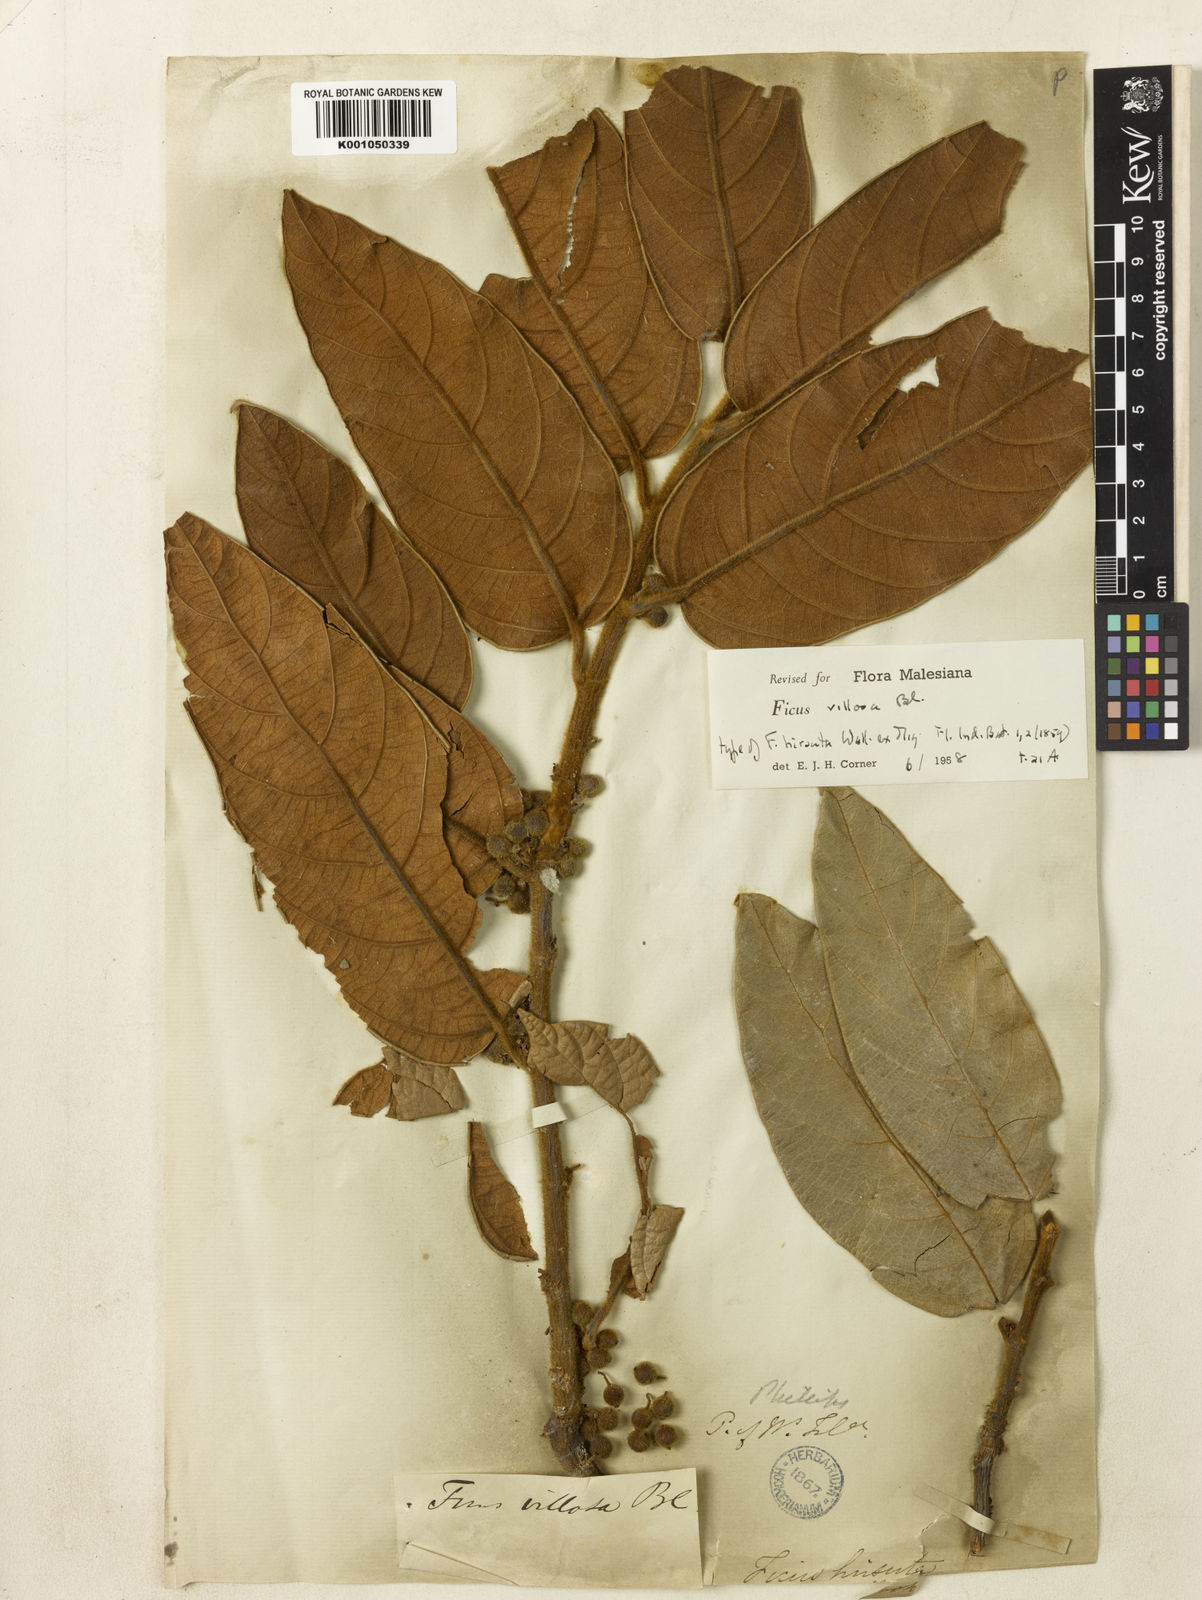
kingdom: Plantae
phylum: Tracheophyta
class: Magnoliopsida
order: Rosales
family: Moraceae
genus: Ficus
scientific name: Ficus villosa
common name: Villous fig
